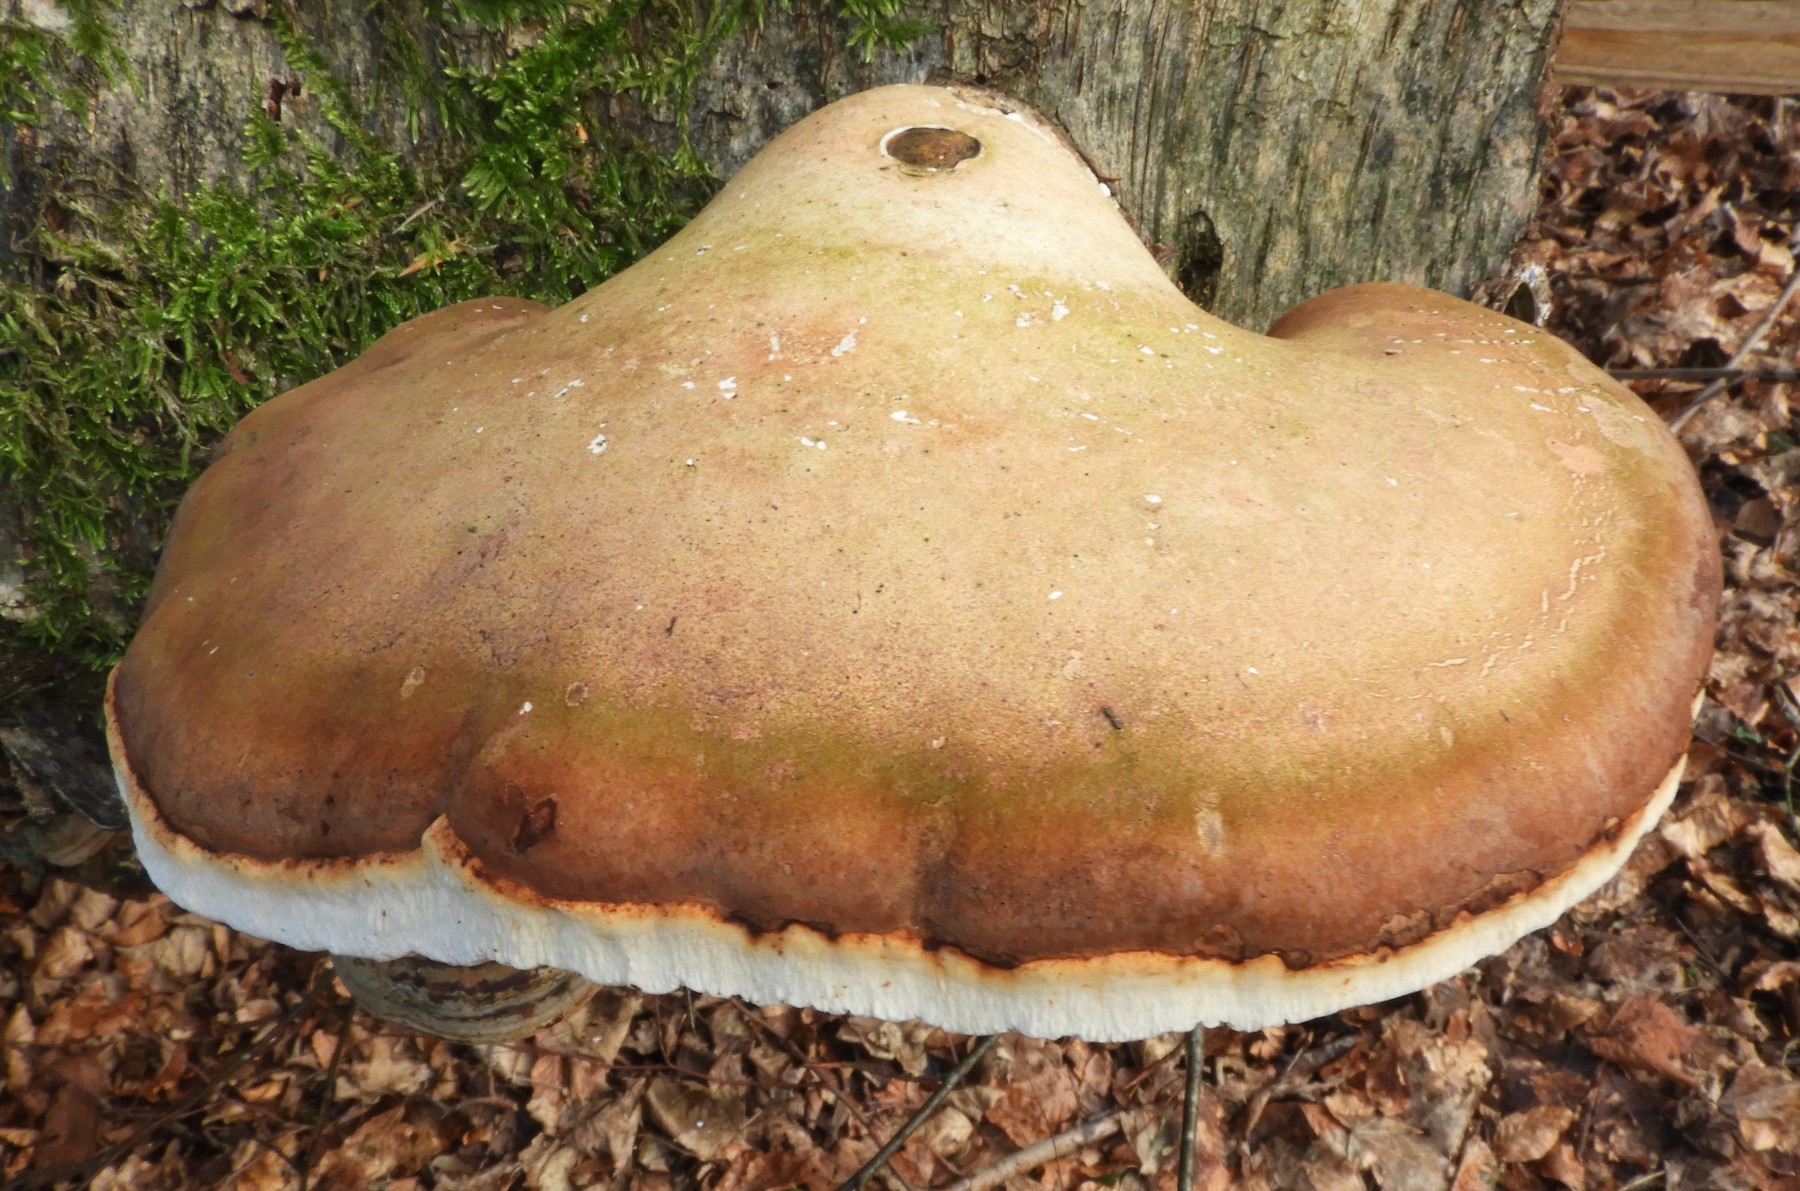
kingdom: Fungi
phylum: Basidiomycota
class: Agaricomycetes
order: Polyporales
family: Fomitopsidaceae
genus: Fomitopsis
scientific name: Fomitopsis betulina
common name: birkeporesvamp
